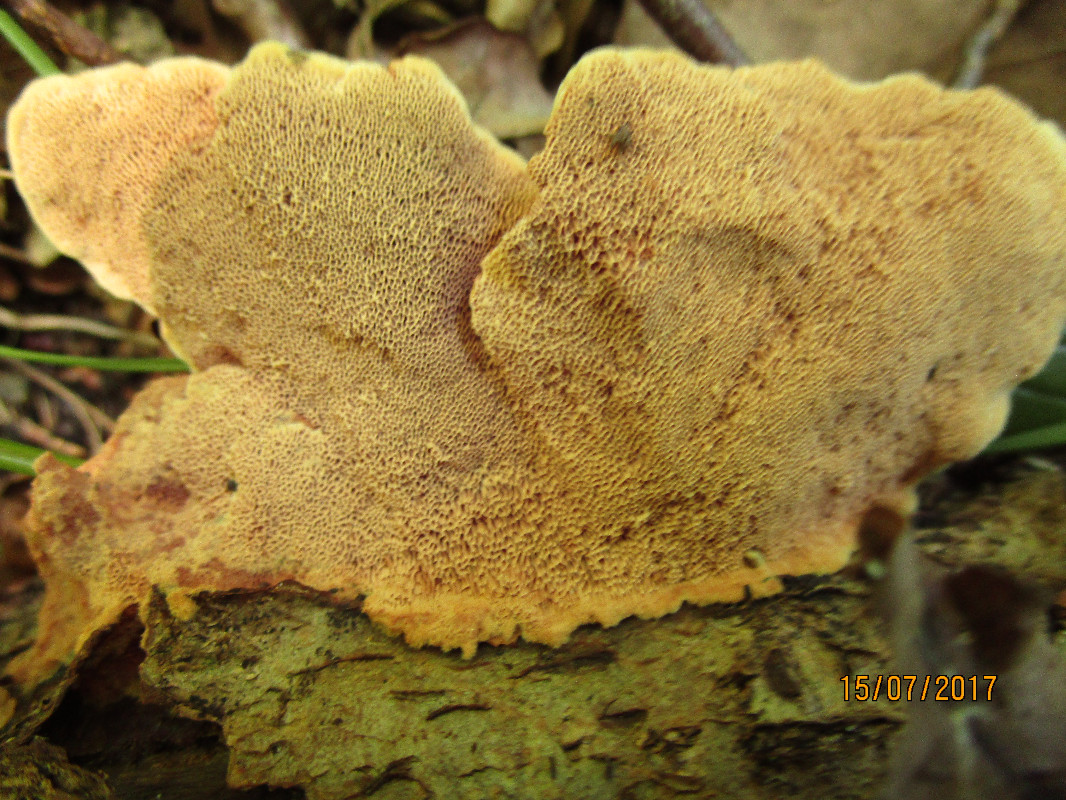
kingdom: Fungi
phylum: Basidiomycota
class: Agaricomycetes
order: Polyporales
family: Phanerochaetaceae
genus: Hapalopilus
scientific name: Hapalopilus rutilans
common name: rødlig okkerporesvamp
